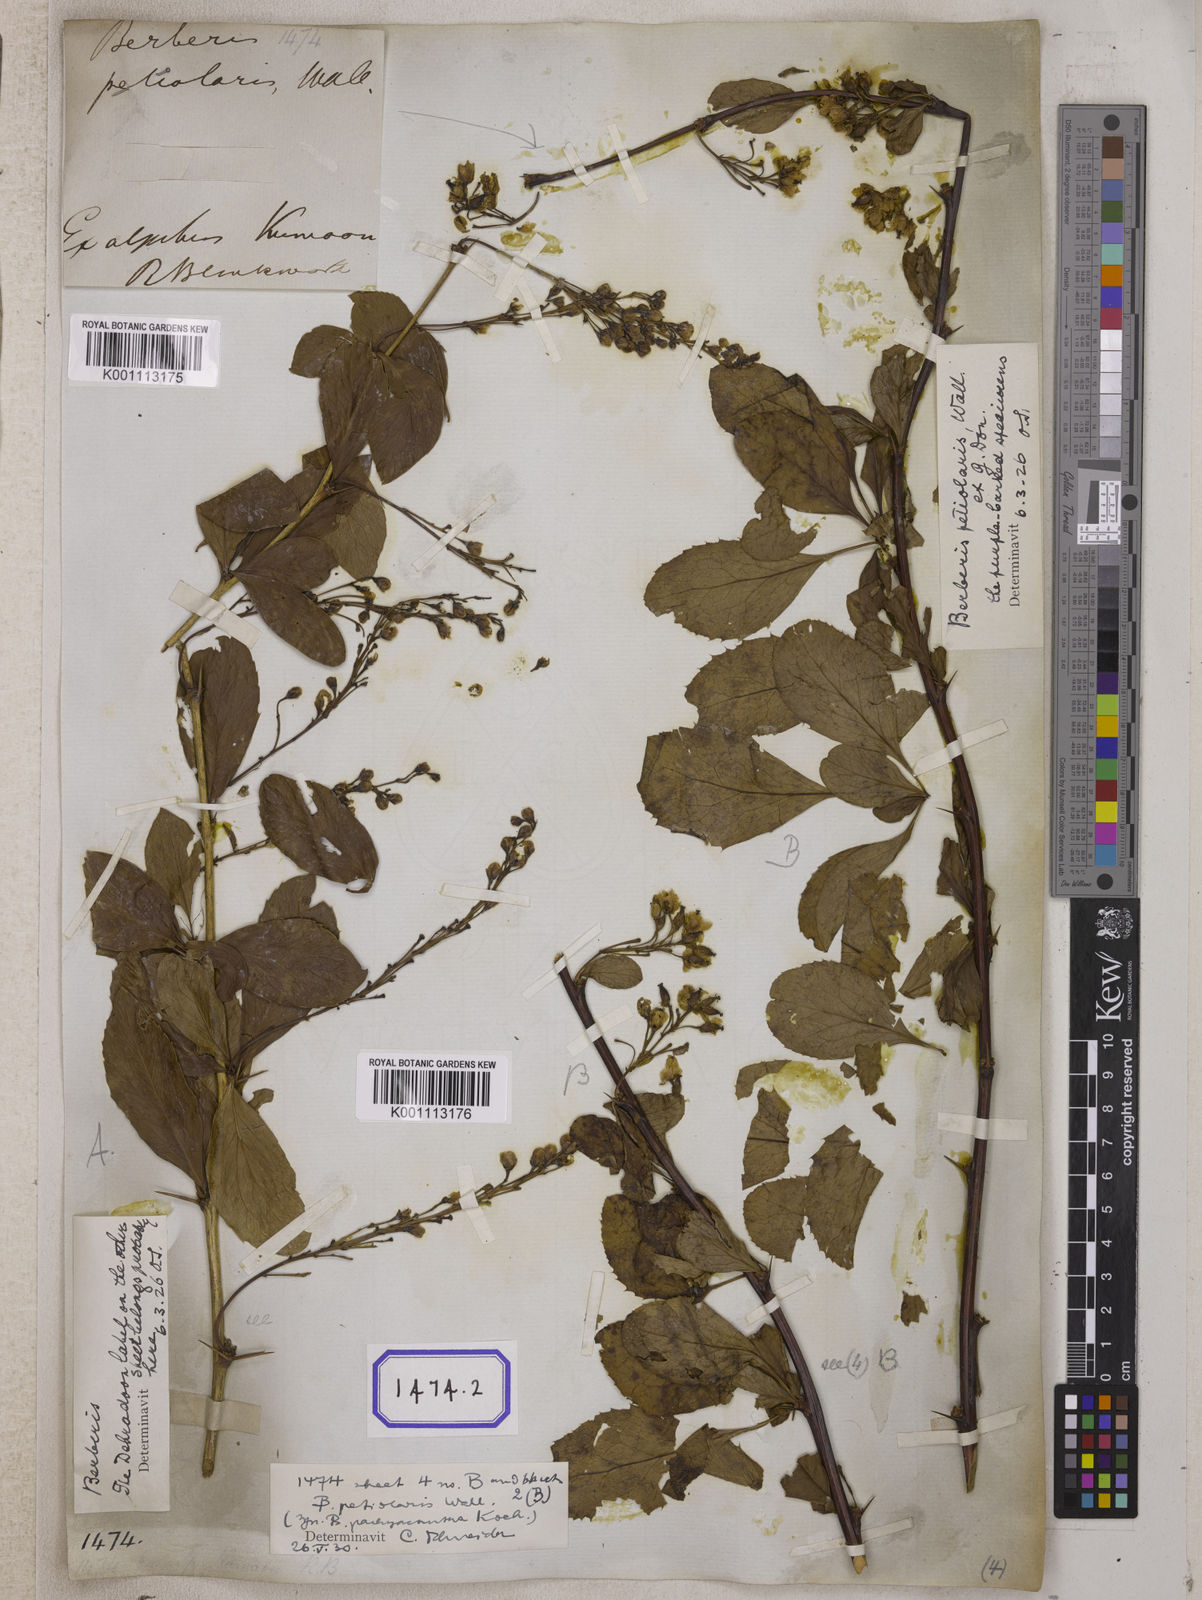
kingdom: Plantae
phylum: Tracheophyta
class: Magnoliopsida
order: Ranunculales
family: Berberidaceae
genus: Berberis
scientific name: Berberis aristata
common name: Indian barberry
